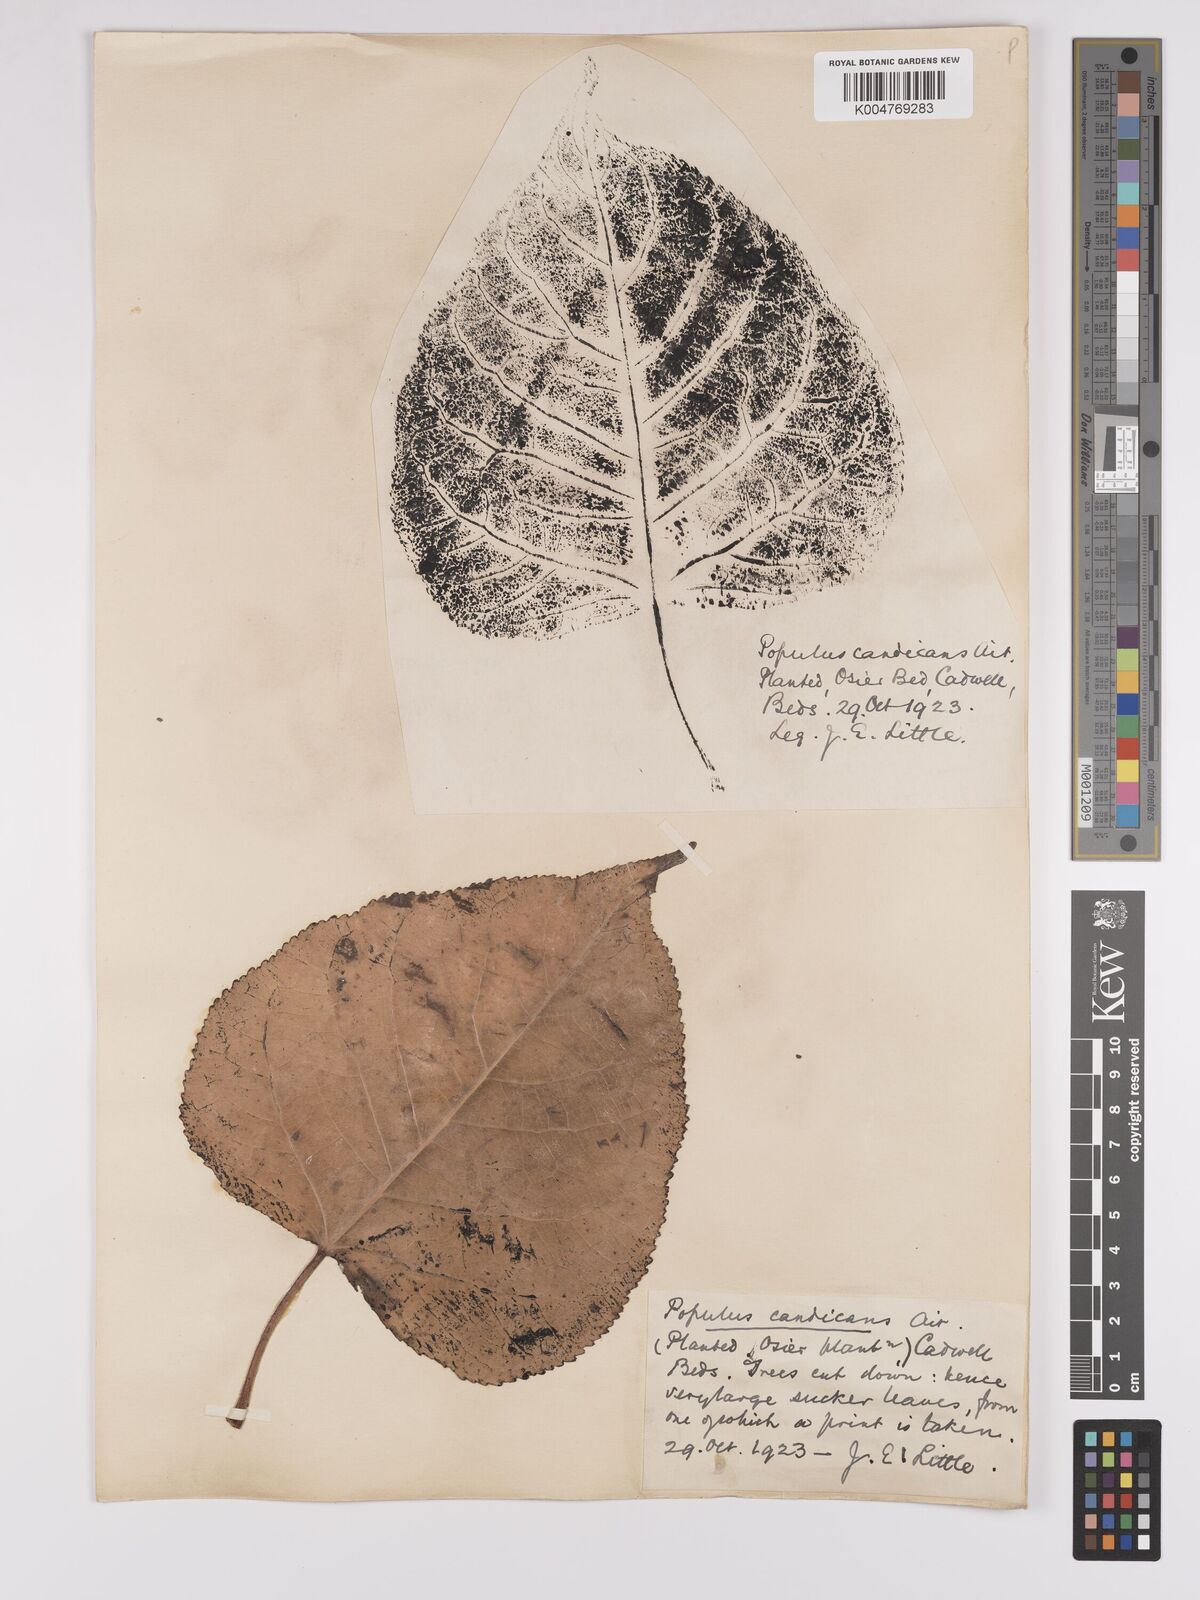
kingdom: Plantae
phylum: Tracheophyta
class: Magnoliopsida
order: Malpighiales
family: Salicaceae
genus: Populus
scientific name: Populus balsamifera
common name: Balsam poplar
